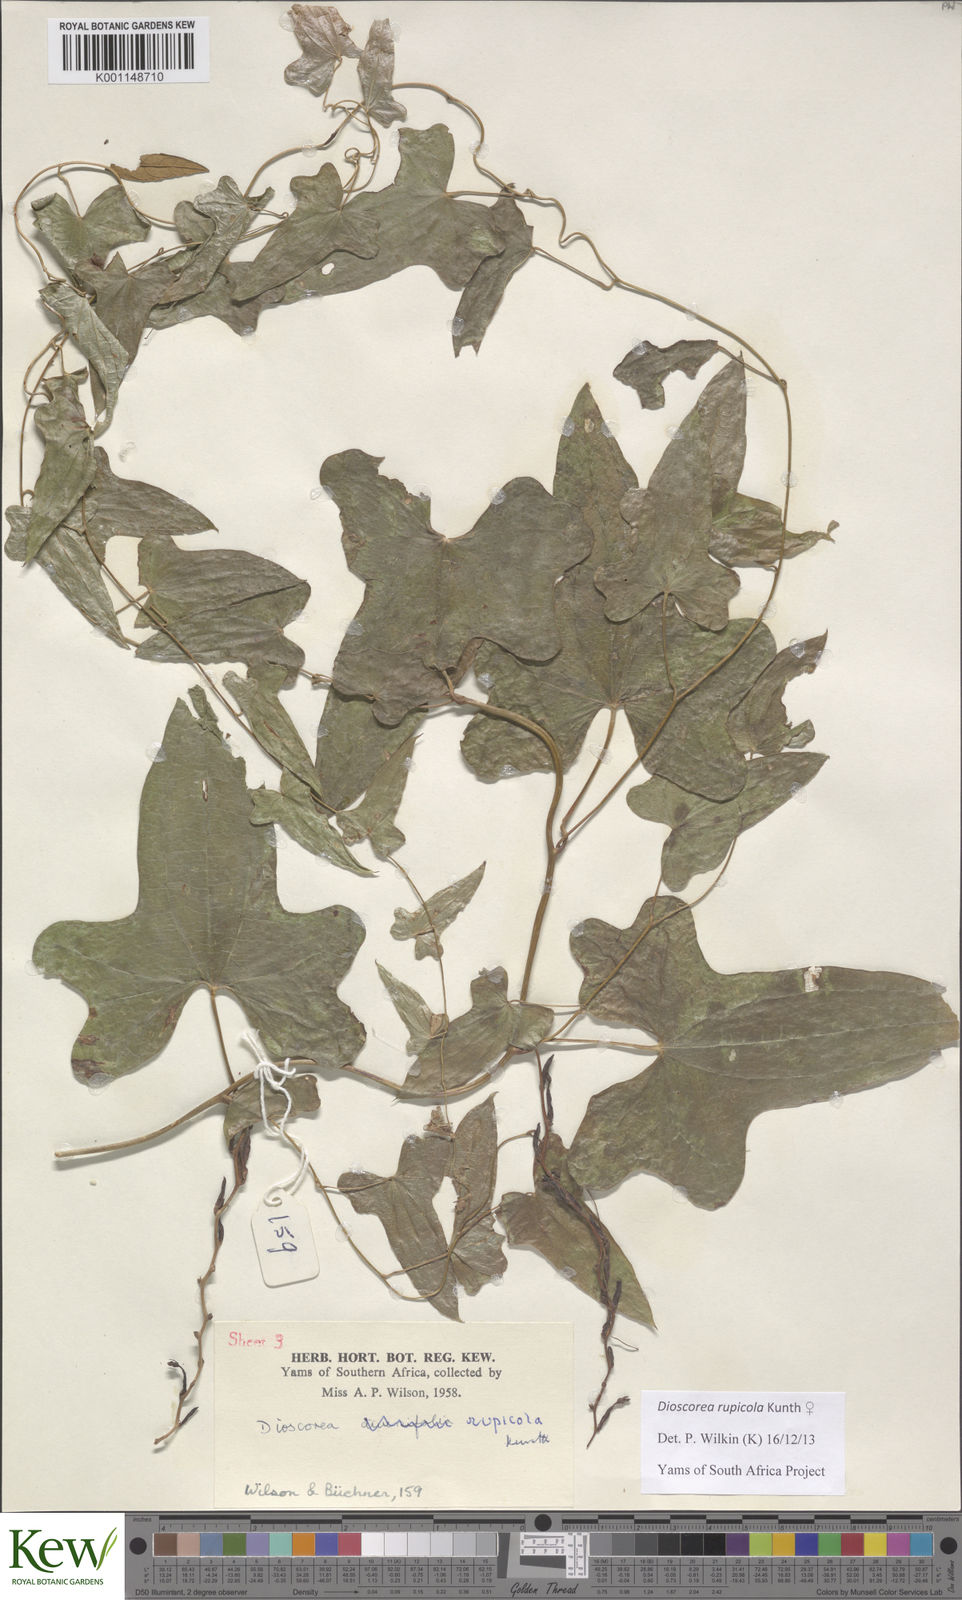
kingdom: Plantae
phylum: Tracheophyta
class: Liliopsida
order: Dioscoreales
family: Dioscoreaceae
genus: Dioscorea
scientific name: Dioscorea rupicola
